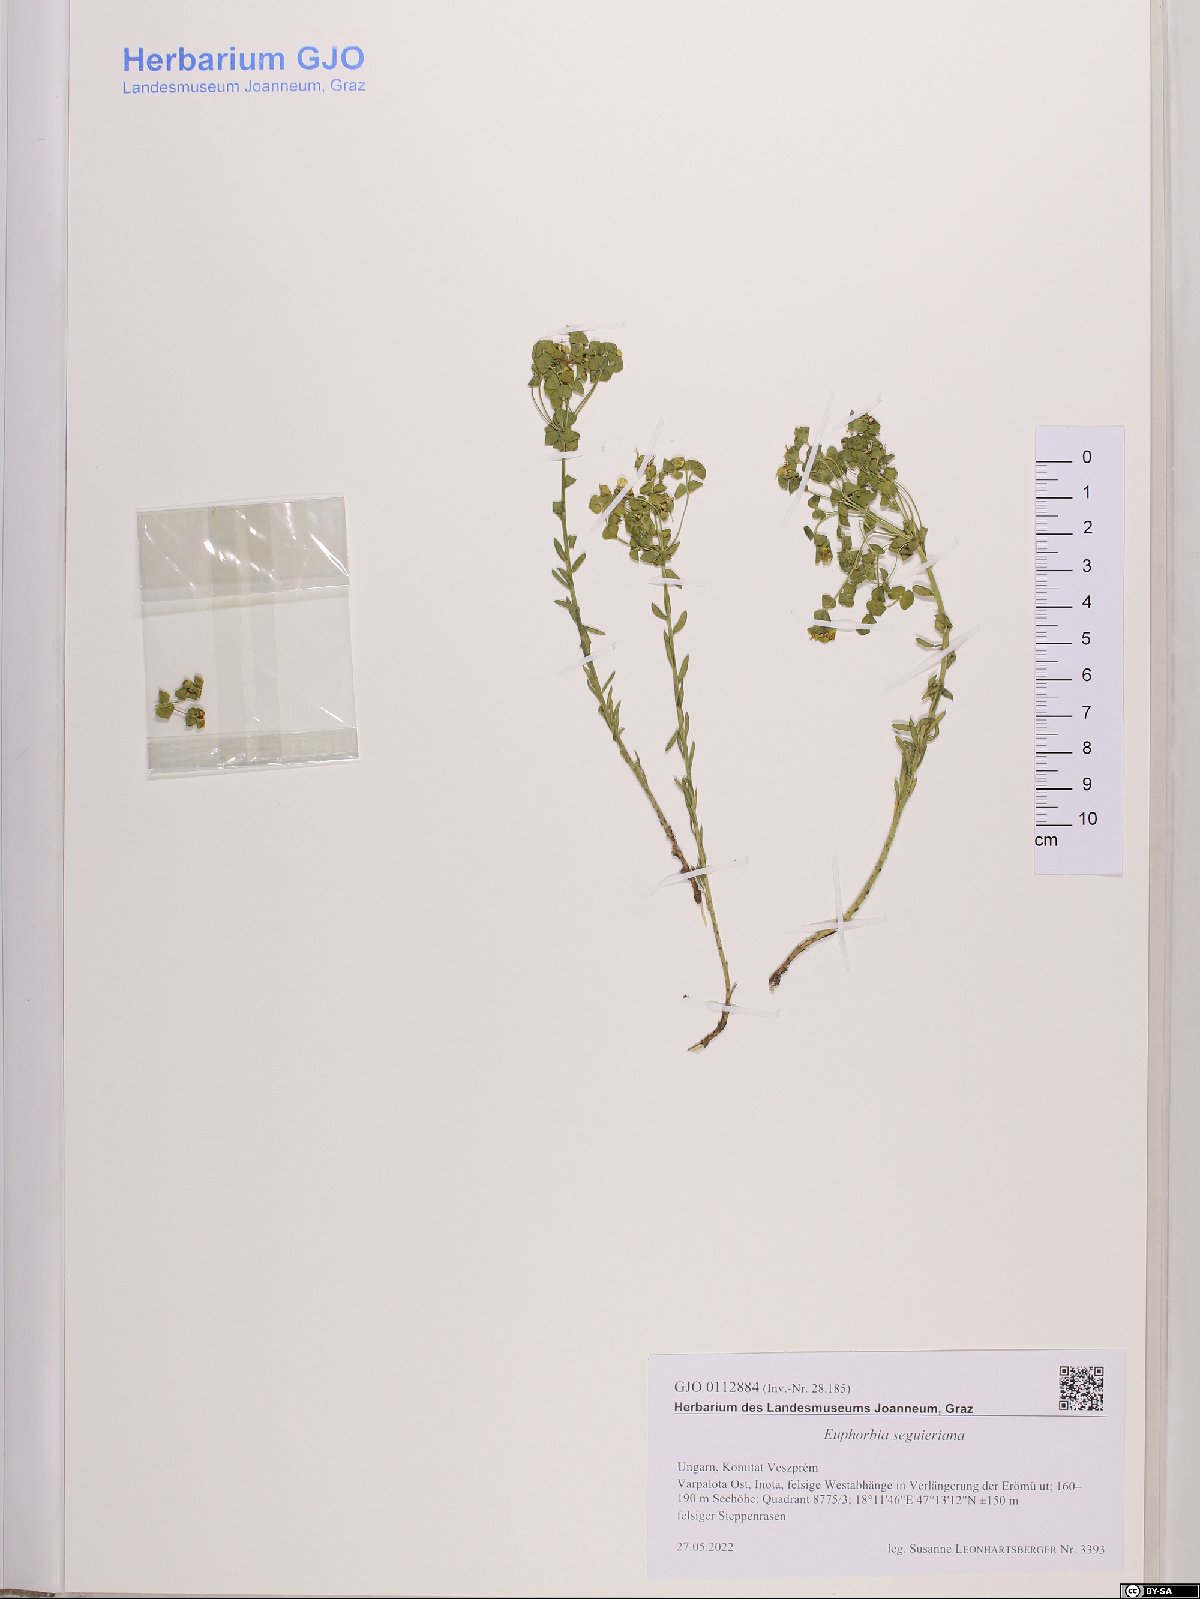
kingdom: Plantae
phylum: Tracheophyta
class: Magnoliopsida
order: Malpighiales
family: Euphorbiaceae
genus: Euphorbia
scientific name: Euphorbia seguieriana
